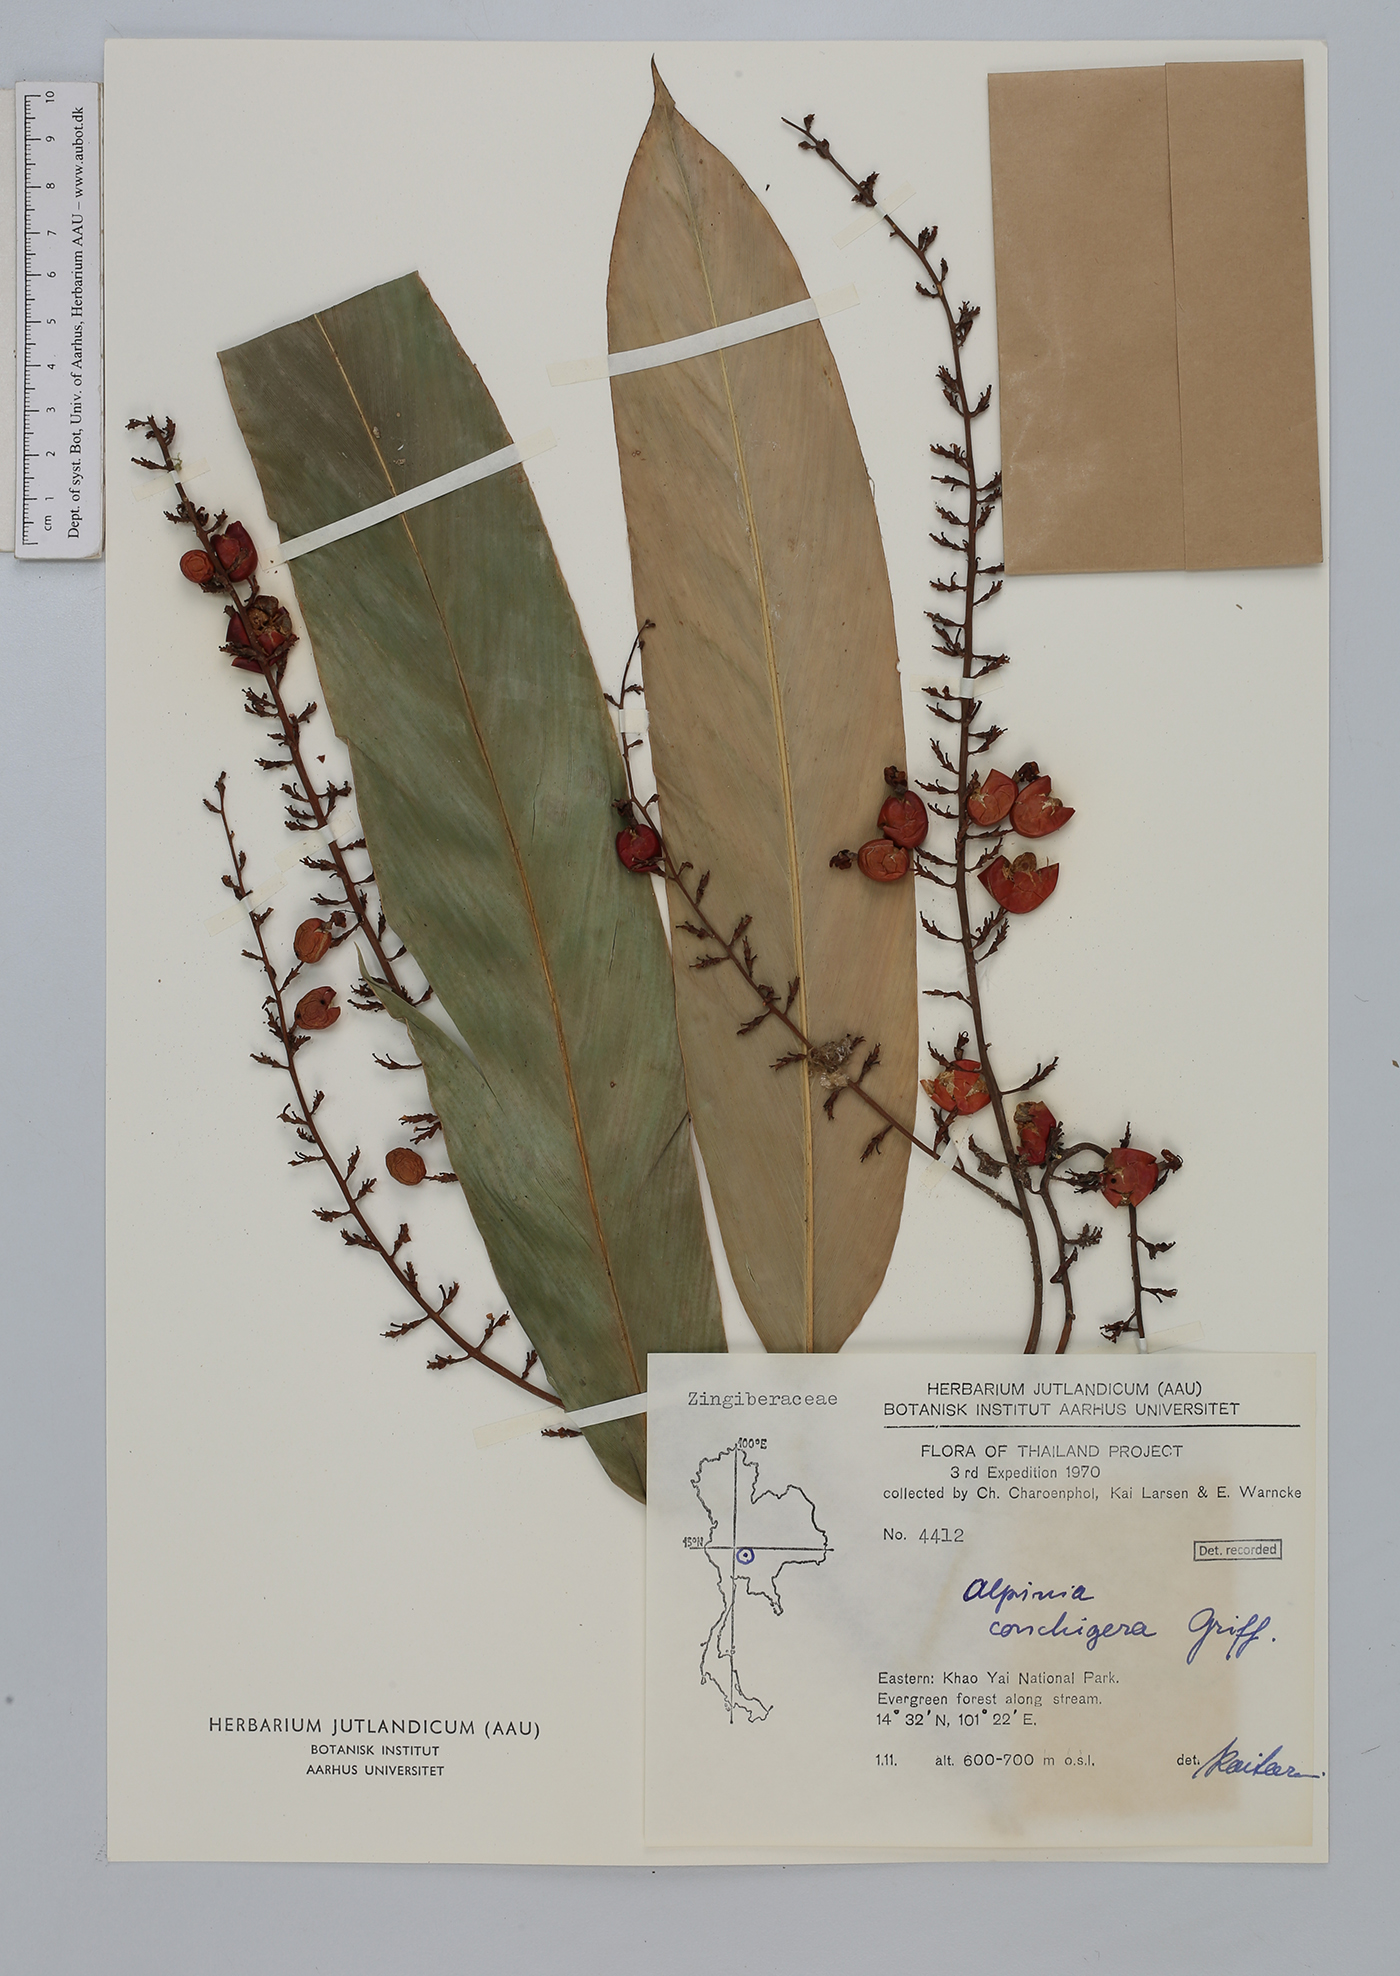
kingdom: Plantae
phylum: Tracheophyta
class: Liliopsida
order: Zingiberales
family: Zingiberaceae
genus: Alpinia
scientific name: Alpinia conchigera
